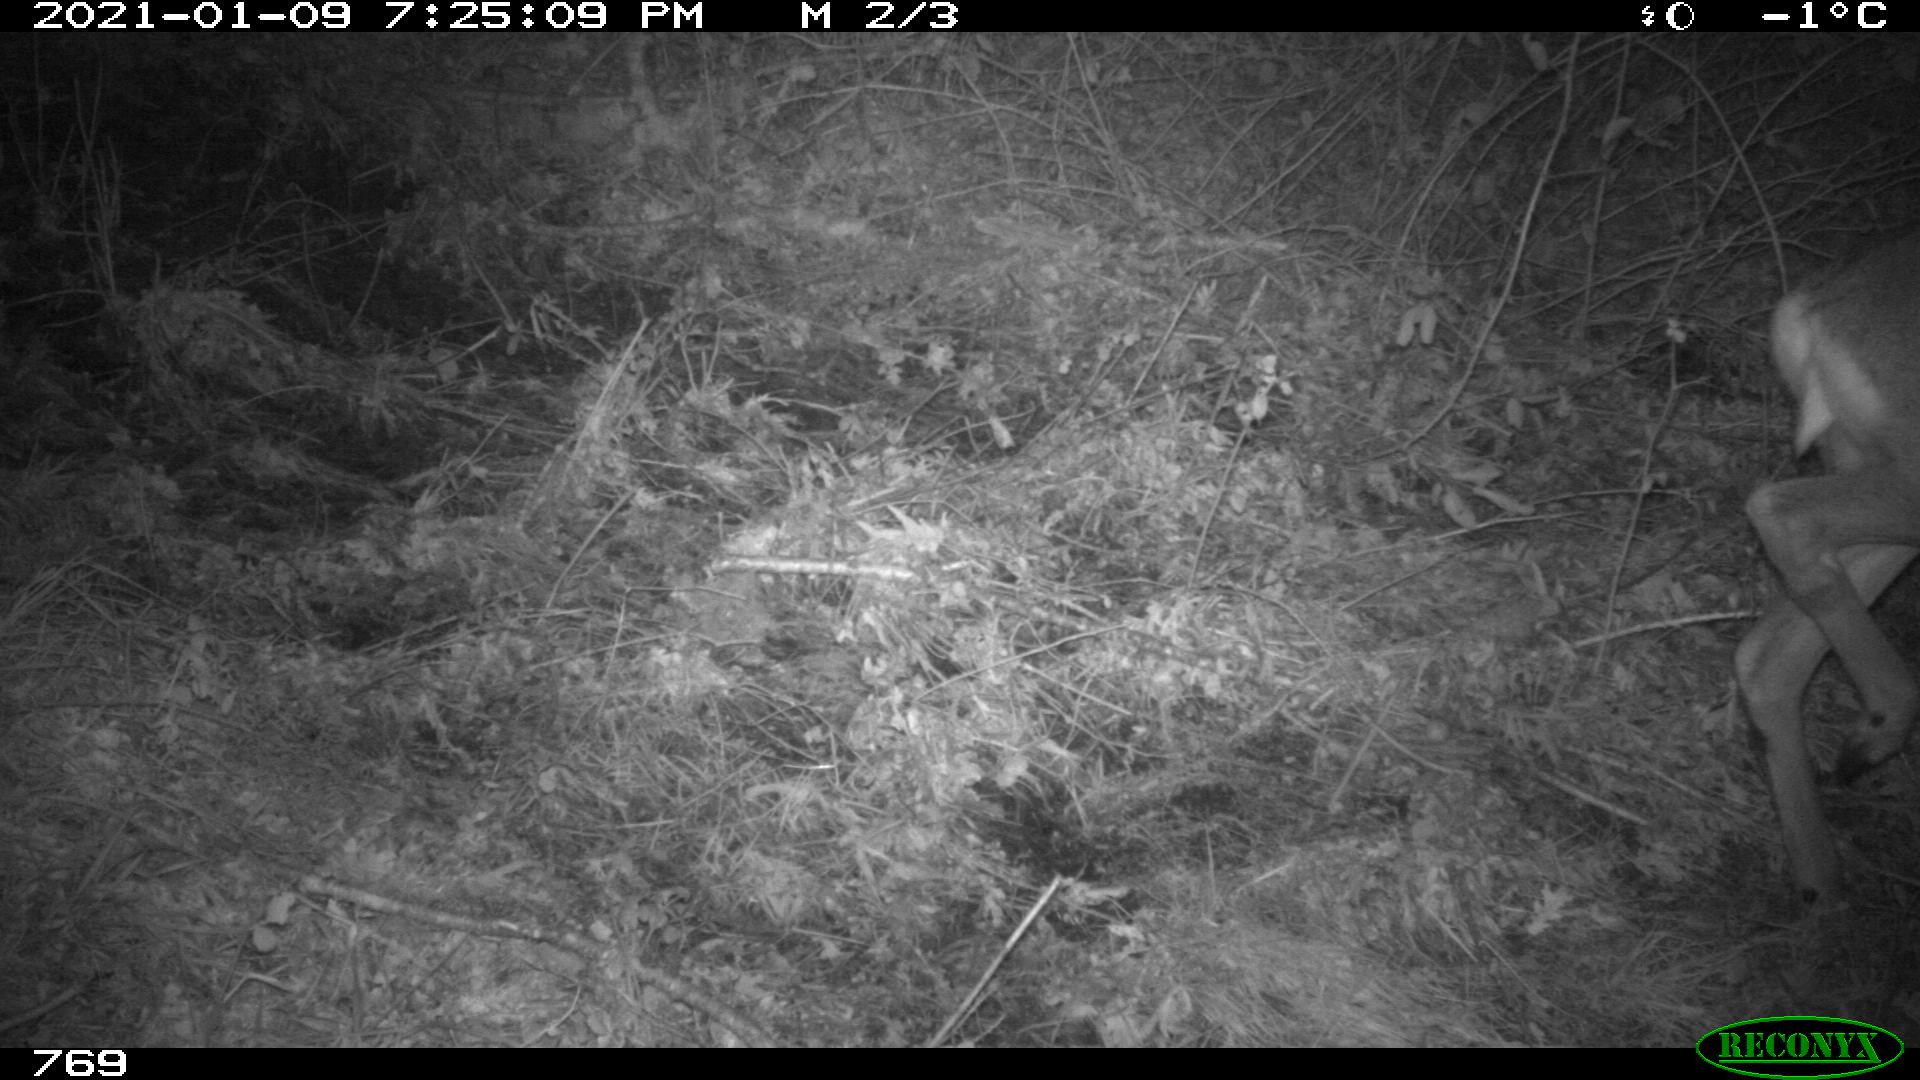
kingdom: Animalia
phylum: Chordata
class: Mammalia
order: Artiodactyla
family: Cervidae
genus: Capreolus
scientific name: Capreolus capreolus
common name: Western roe deer
